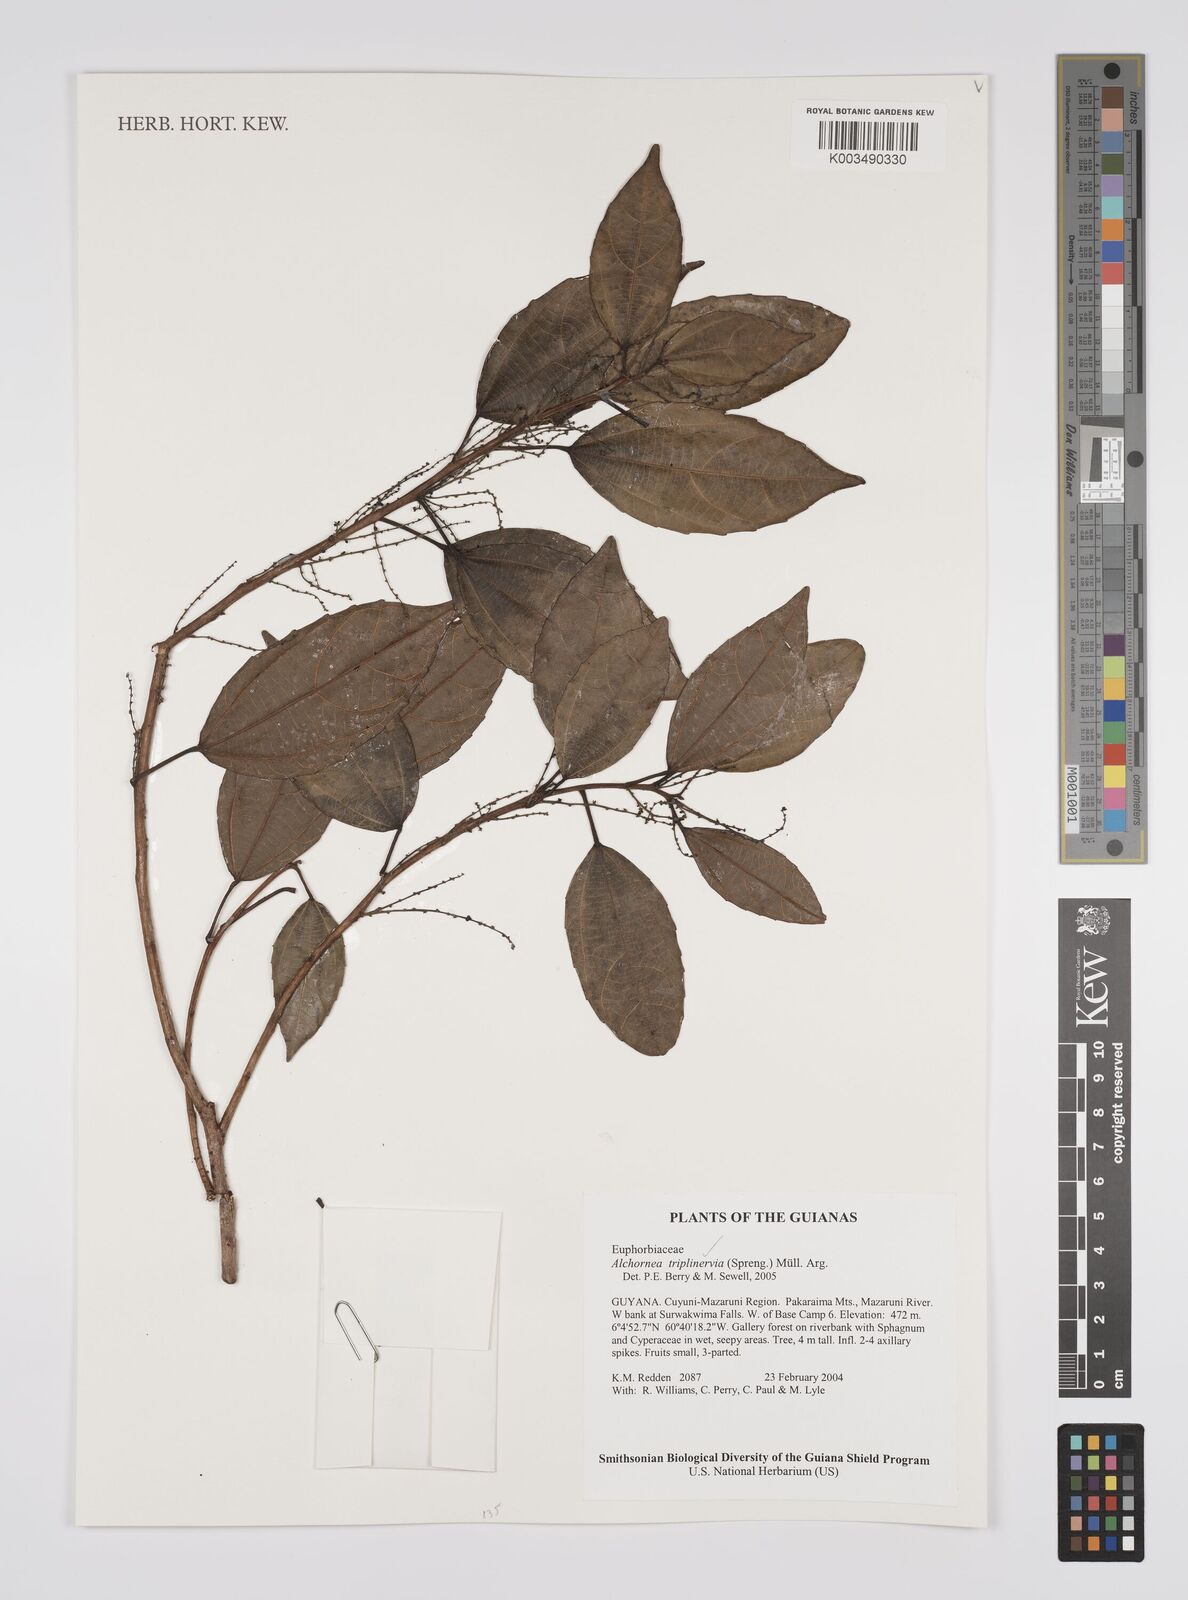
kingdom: Plantae
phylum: Tracheophyta
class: Magnoliopsida
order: Malpighiales
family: Euphorbiaceae
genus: Alchornea
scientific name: Alchornea triplinervia
